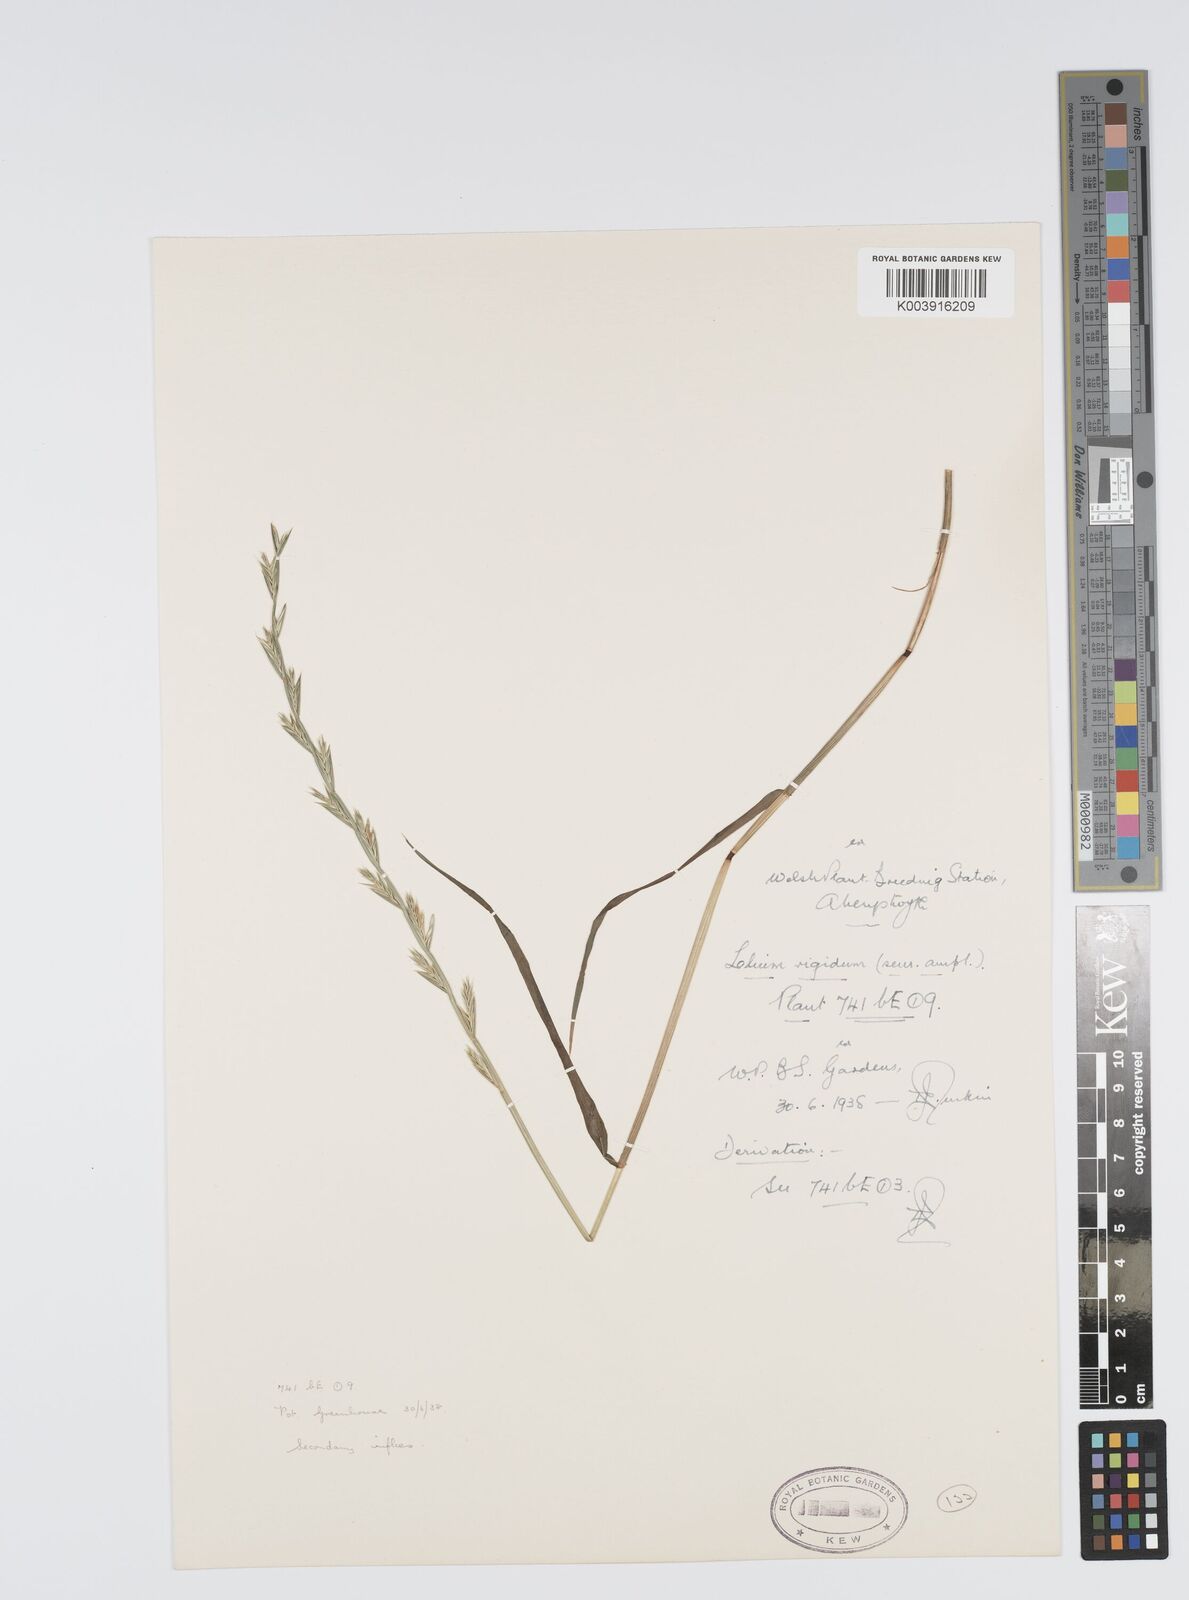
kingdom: Plantae
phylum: Tracheophyta
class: Liliopsida
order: Poales
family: Poaceae
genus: Lolium
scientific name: Lolium rigidum
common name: Wimmera ryegrass
